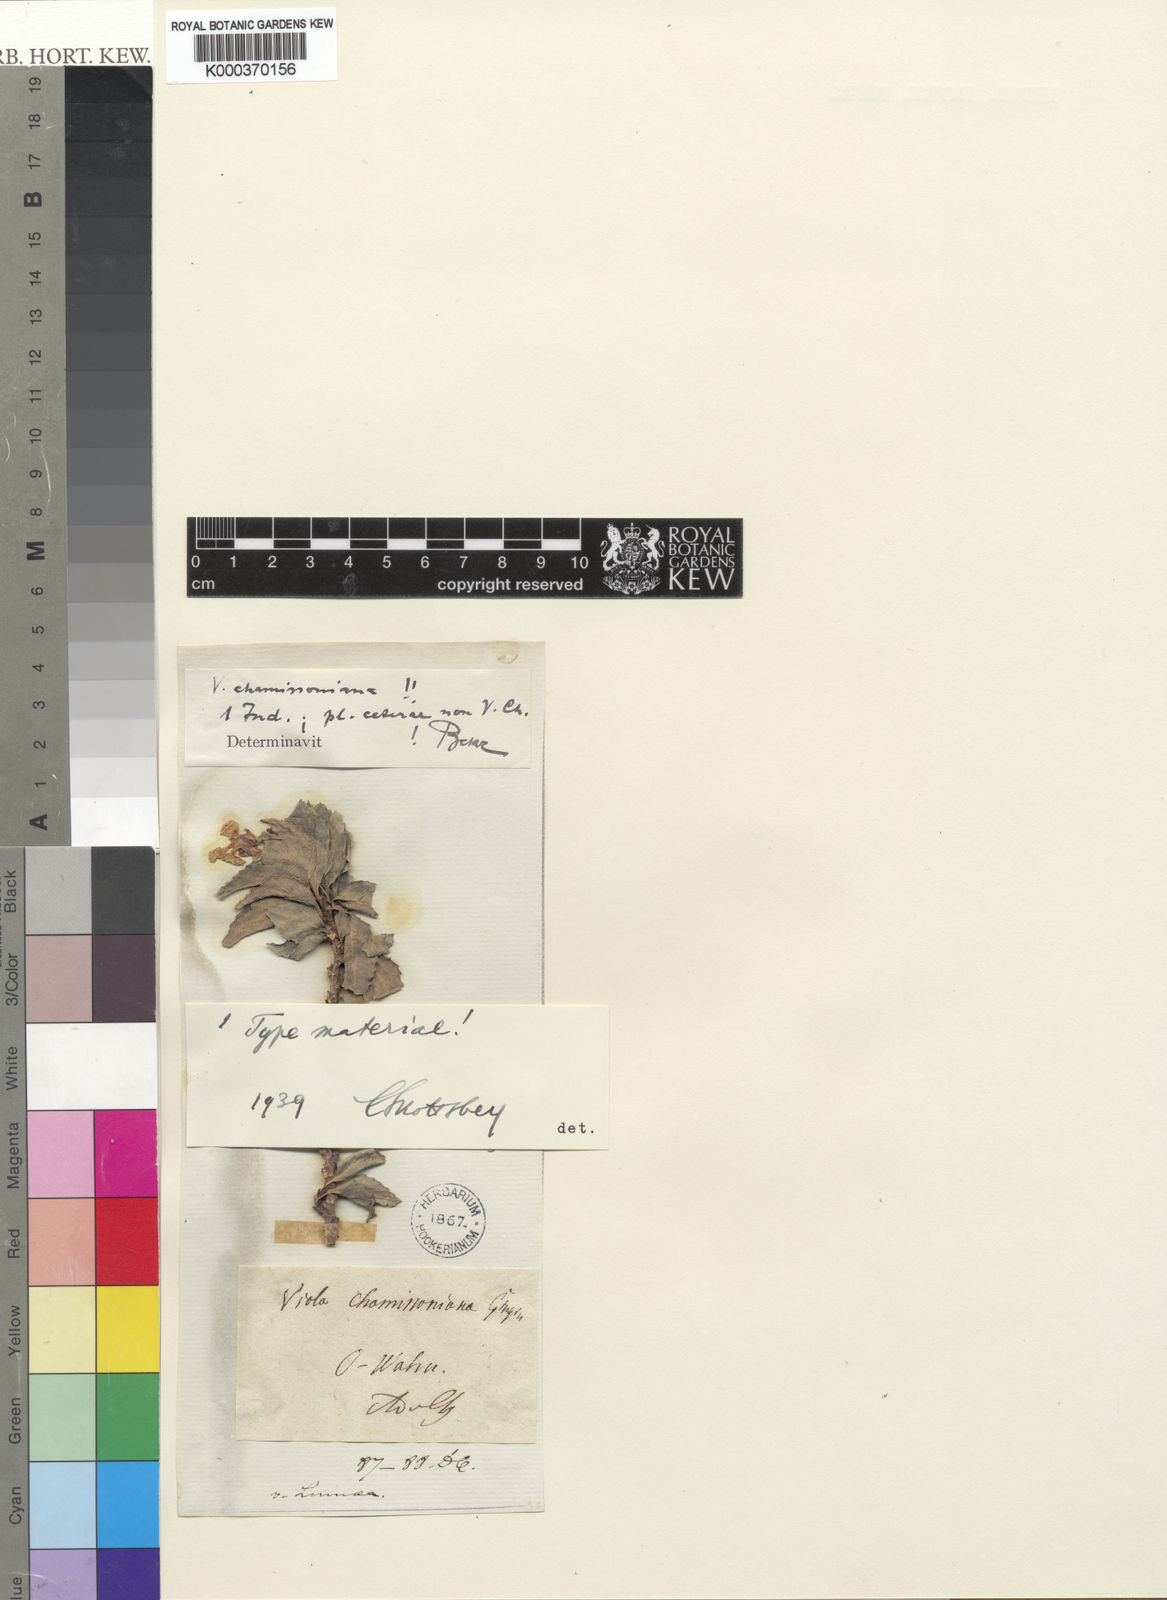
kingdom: Plantae
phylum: Tracheophyta
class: Magnoliopsida
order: Malpighiales
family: Violaceae
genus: Viola
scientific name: Viola chamissoniana
